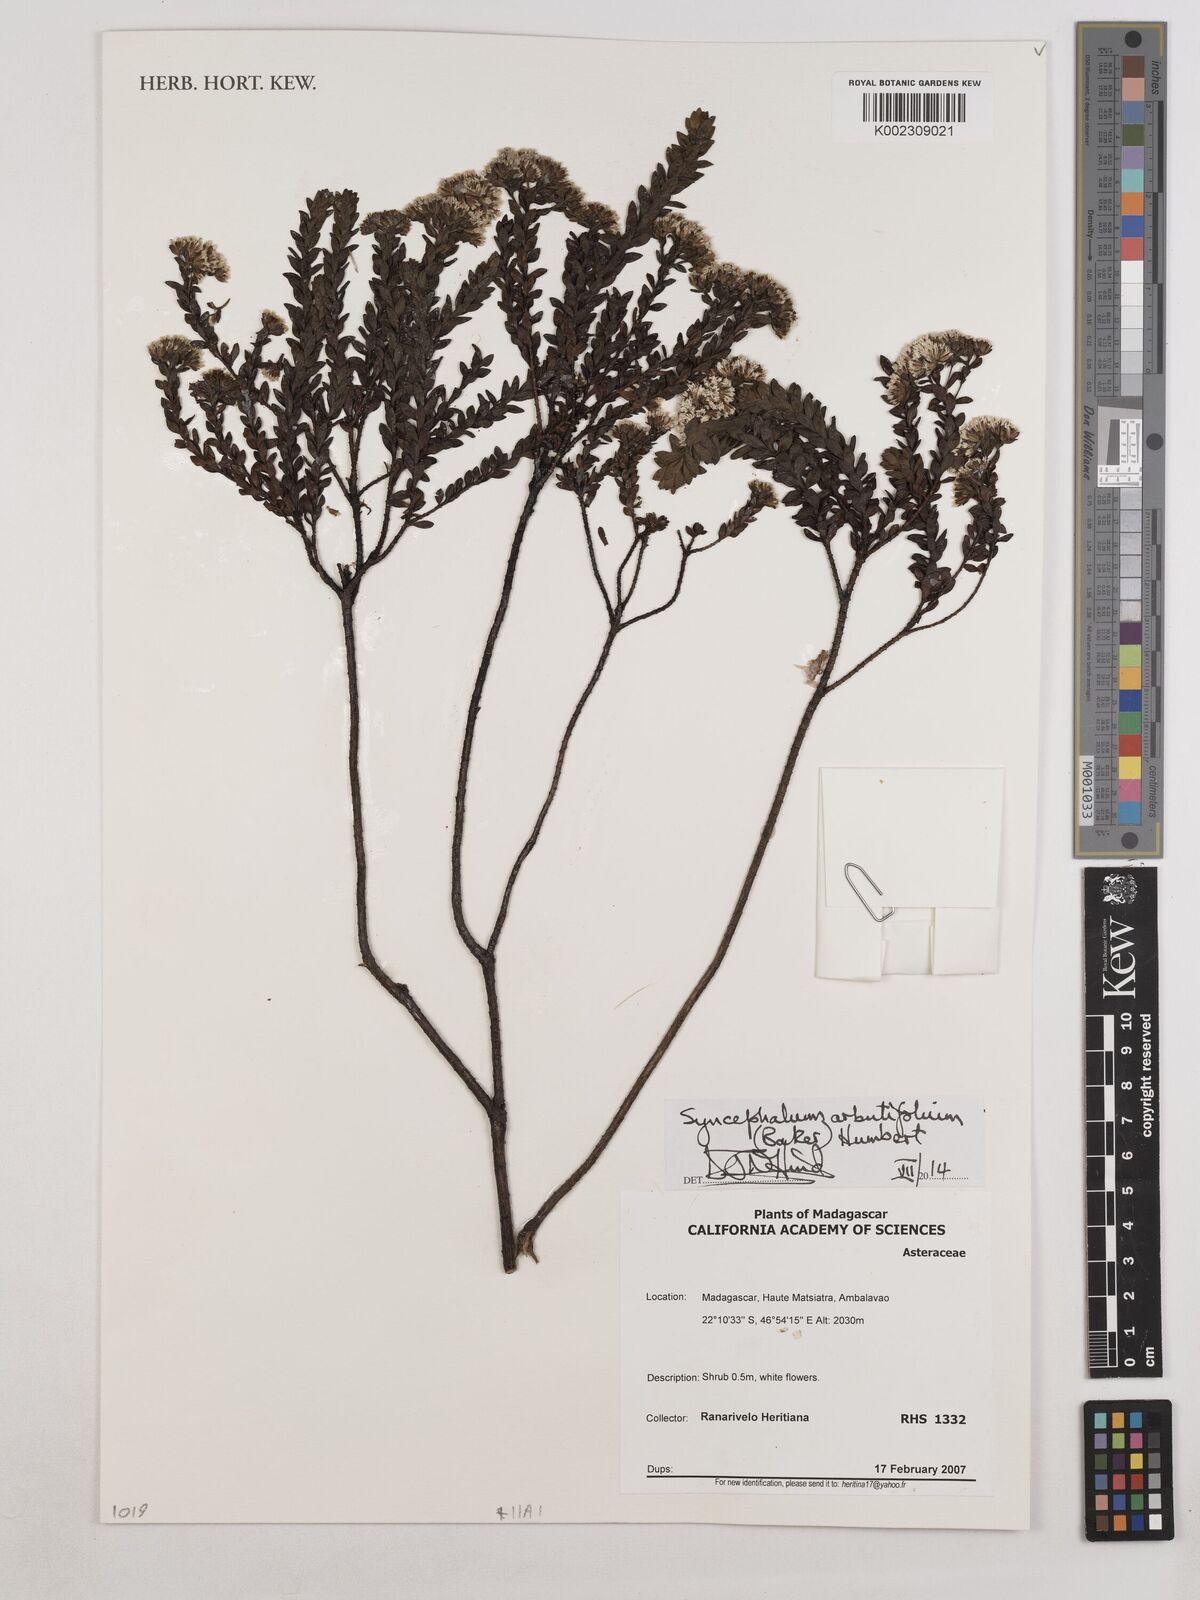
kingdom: Plantae
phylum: Tracheophyta
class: Magnoliopsida
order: Asterales
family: Asteraceae
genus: Syncephalum
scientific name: Syncephalum arbutifolium
